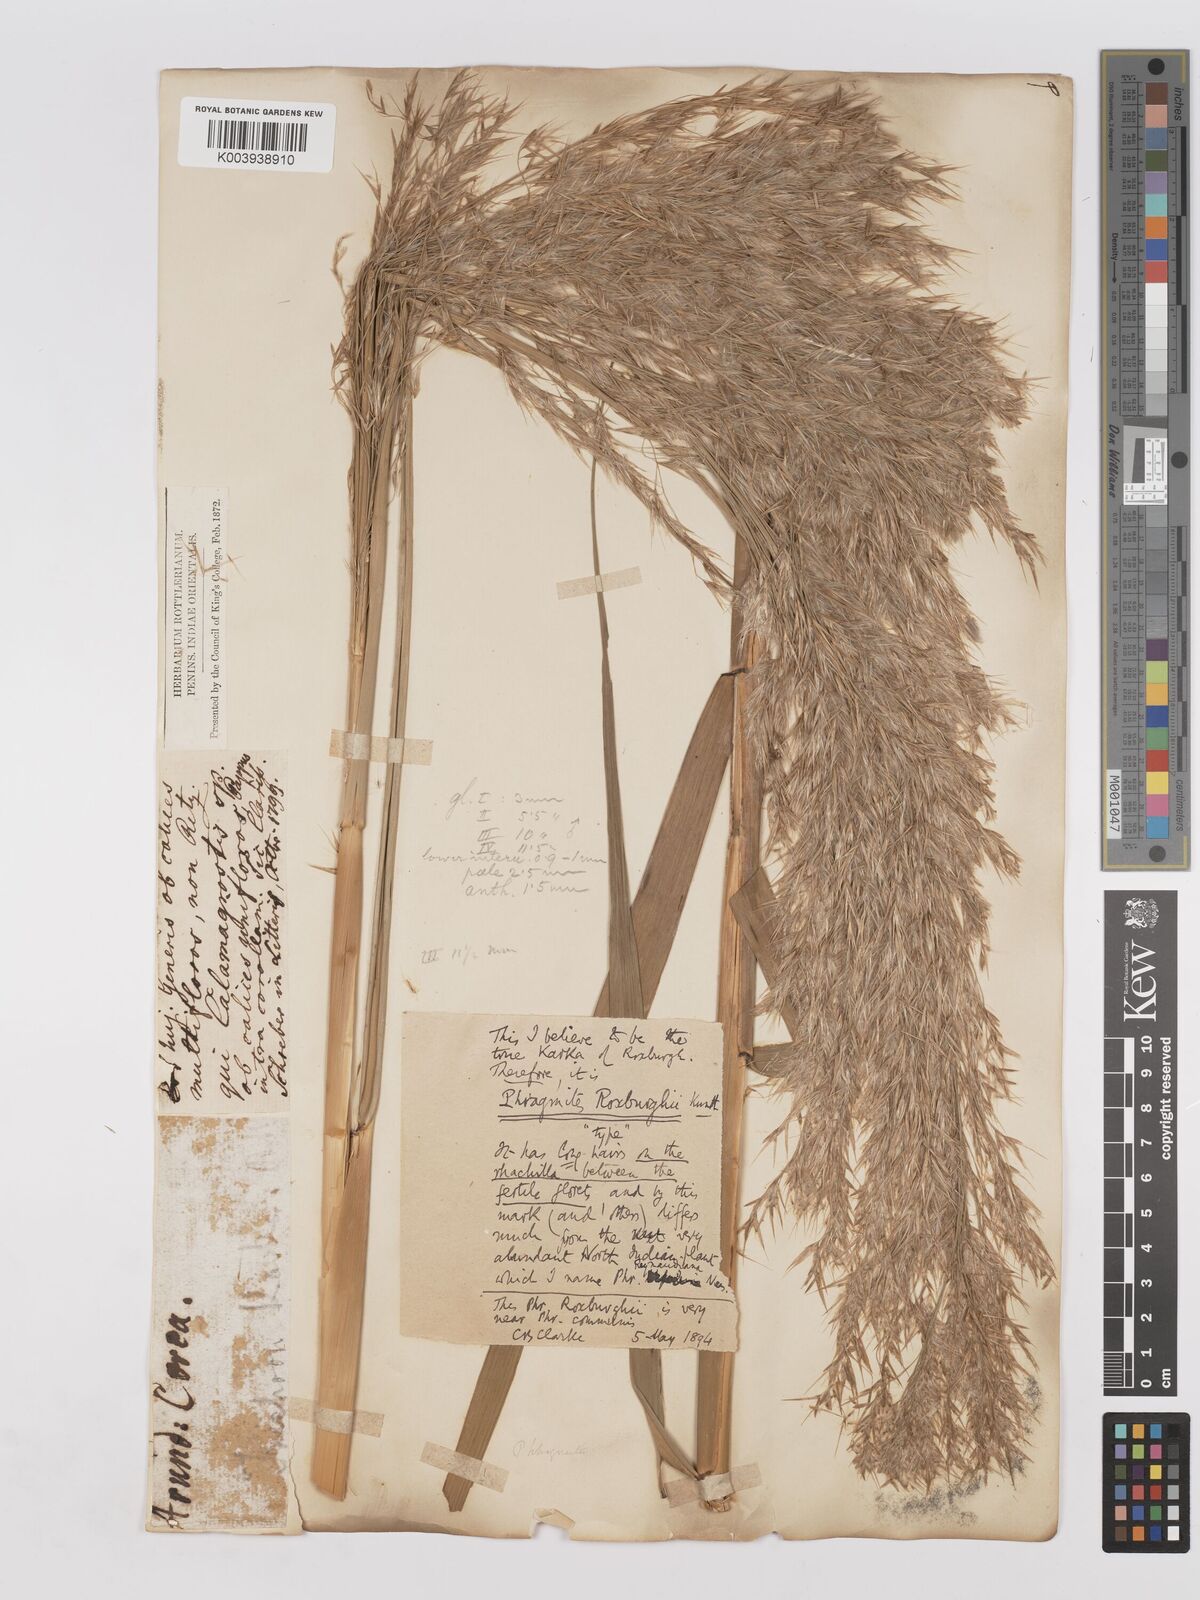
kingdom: Plantae
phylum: Tracheophyta
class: Liliopsida
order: Poales
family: Poaceae
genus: Phragmites
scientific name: Phragmites karka
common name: Tropical reed
